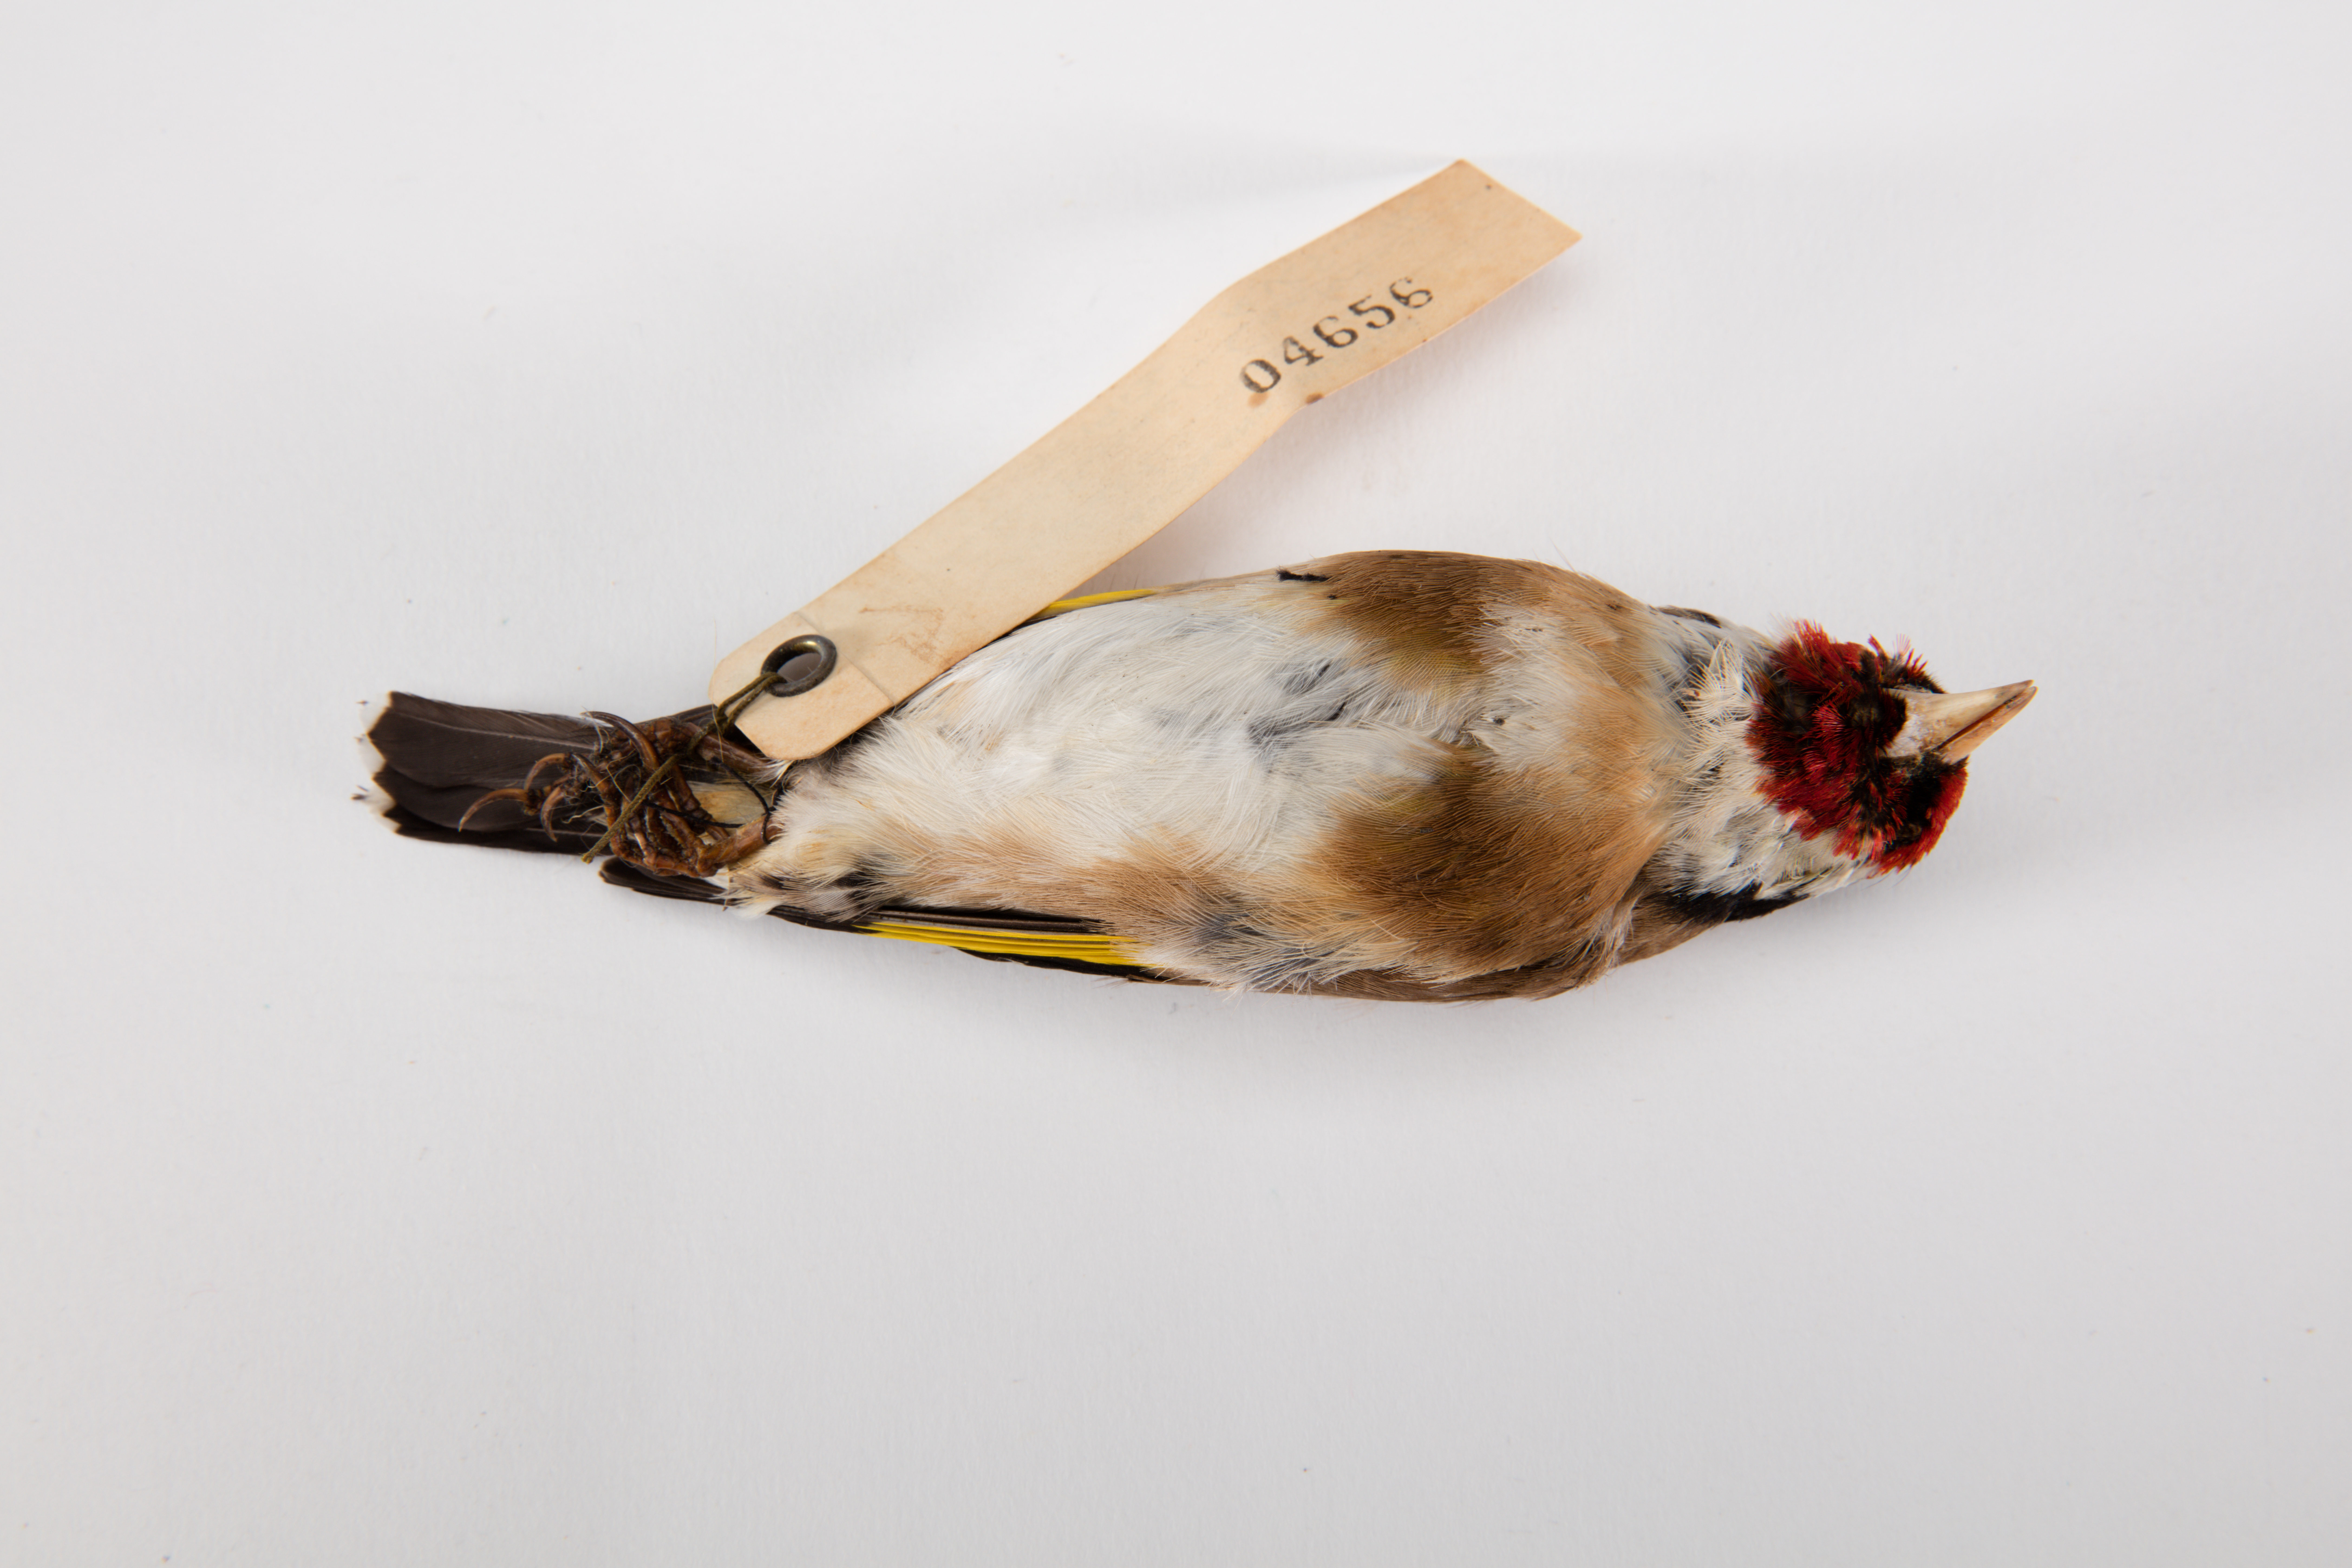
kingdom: Animalia
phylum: Chordata
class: Aves
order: Passeriformes
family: Fringillidae
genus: Carduelis
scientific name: Carduelis carduelis
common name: European goldfinch
